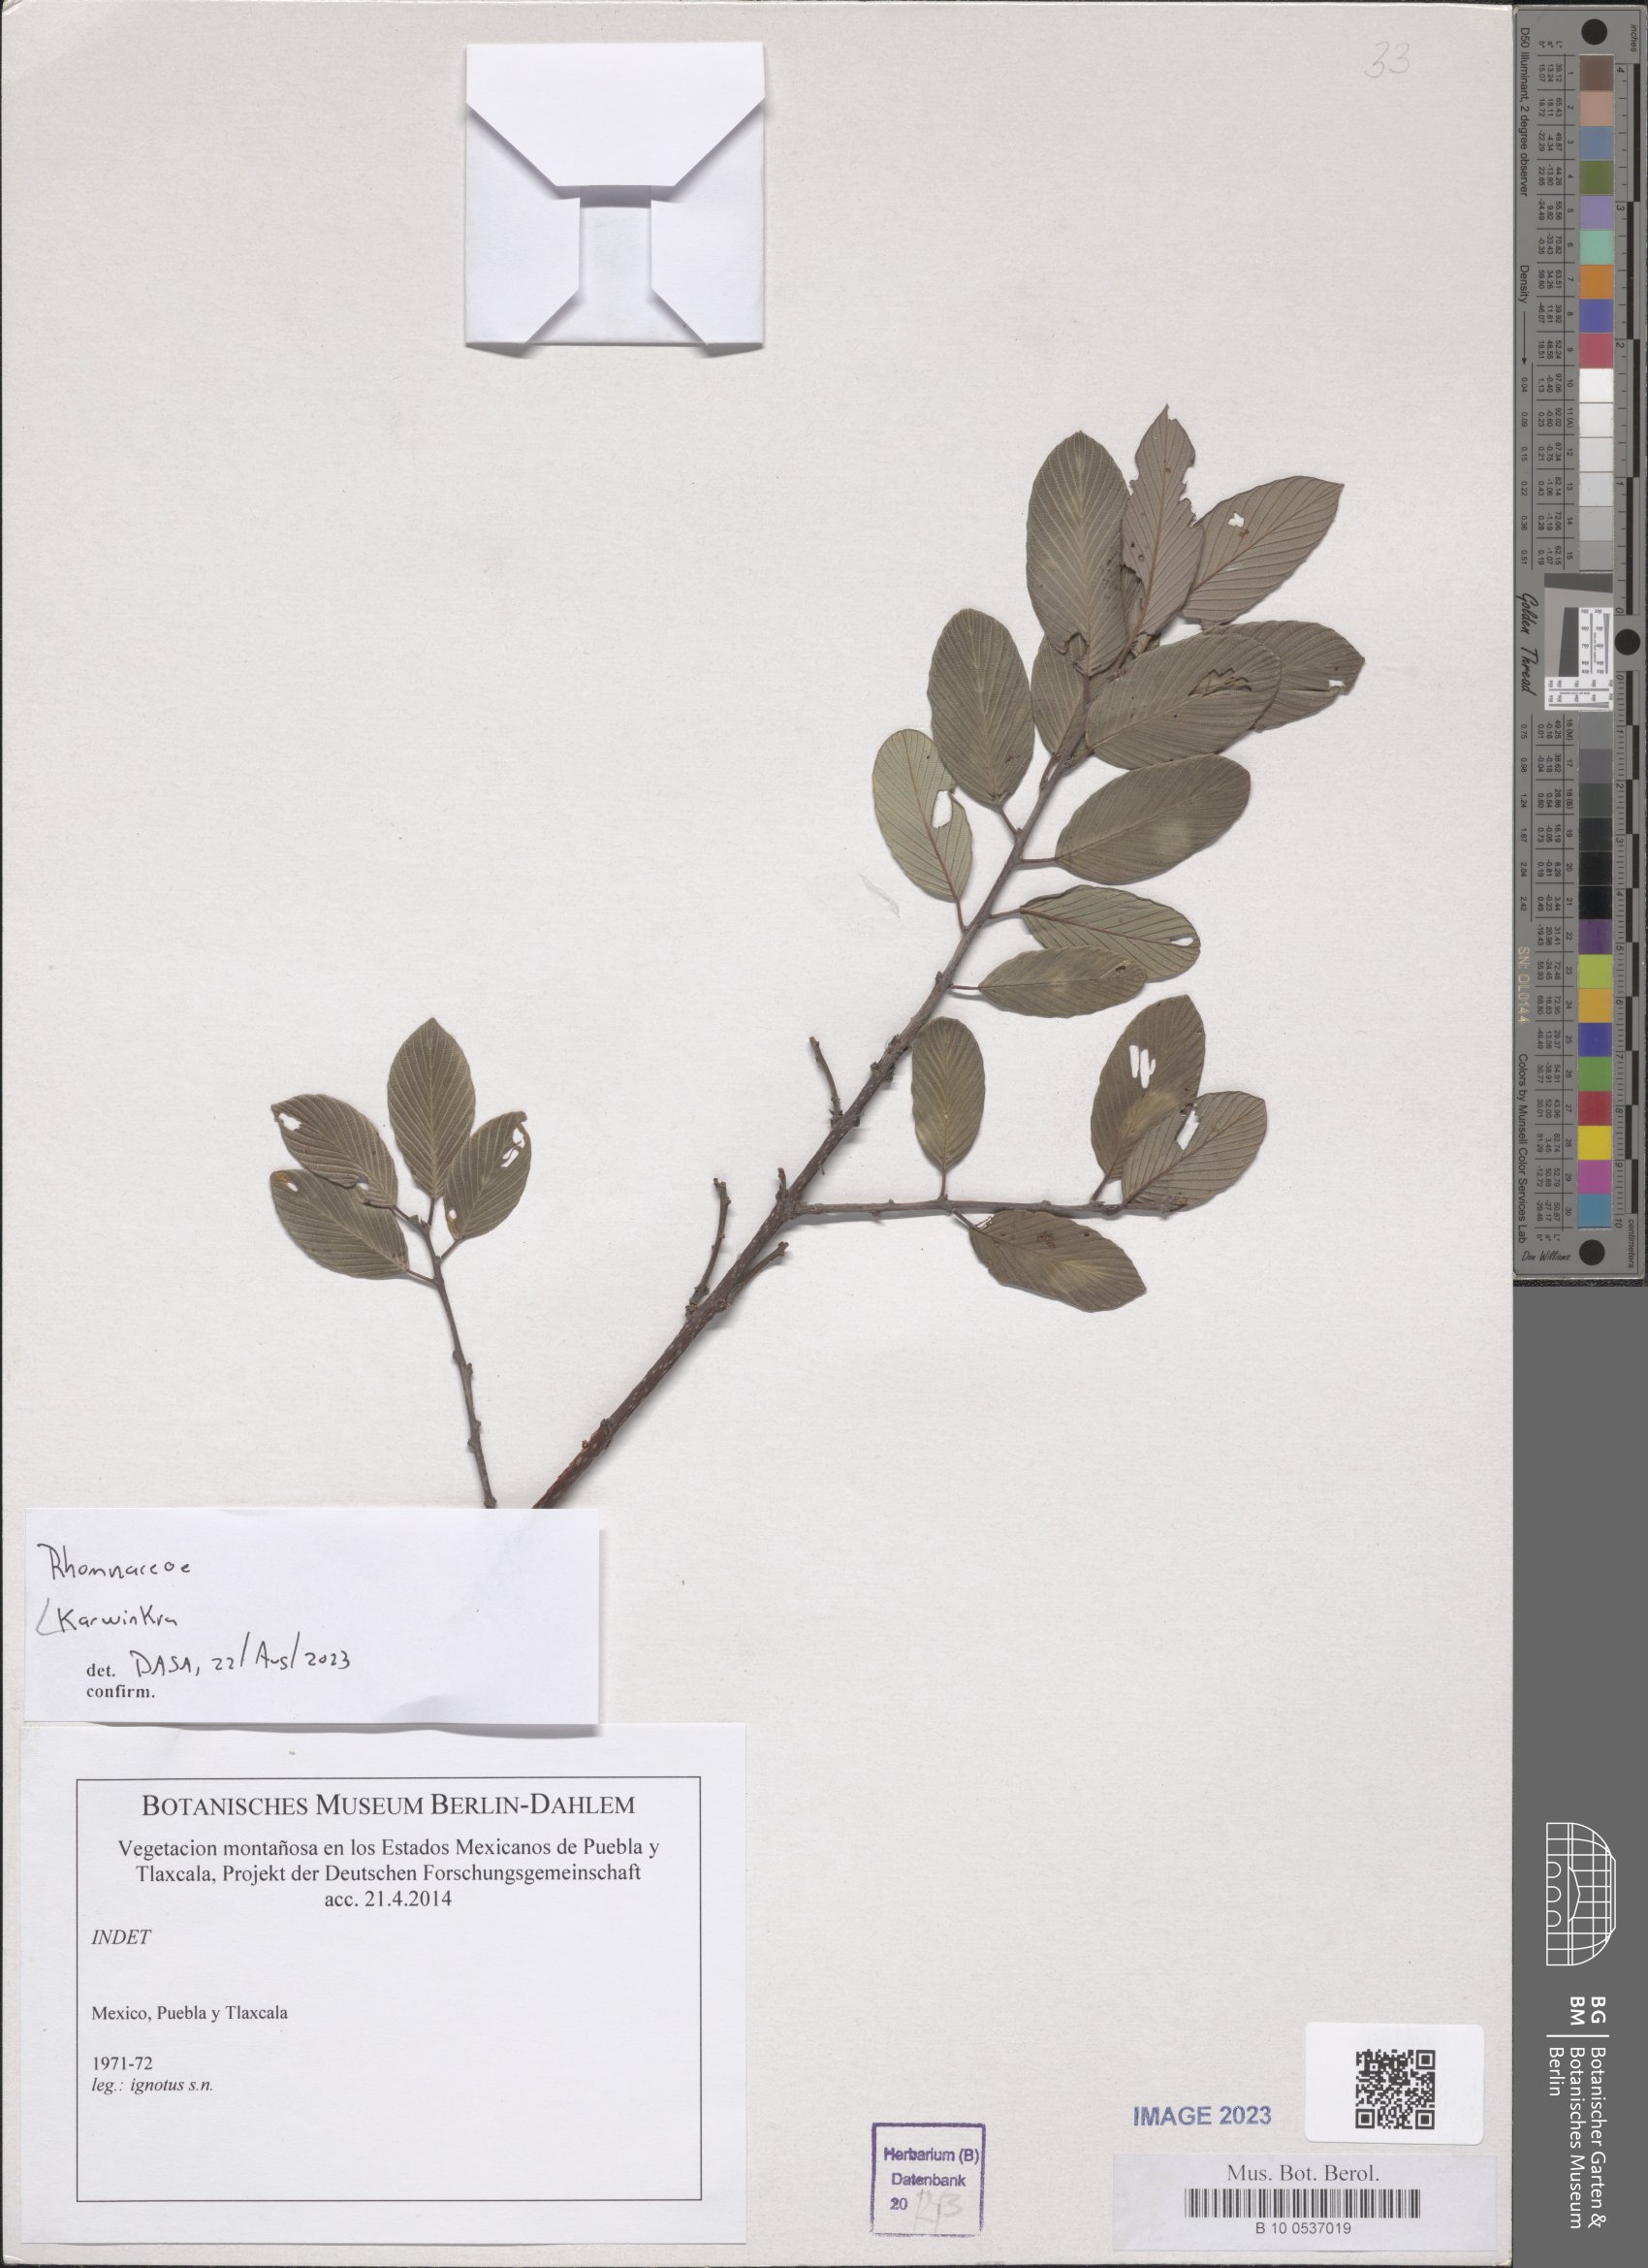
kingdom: Plantae
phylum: Tracheophyta
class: Magnoliopsida
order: Rosales
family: Rhamnaceae
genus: Karwinskia
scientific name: Karwinskia
